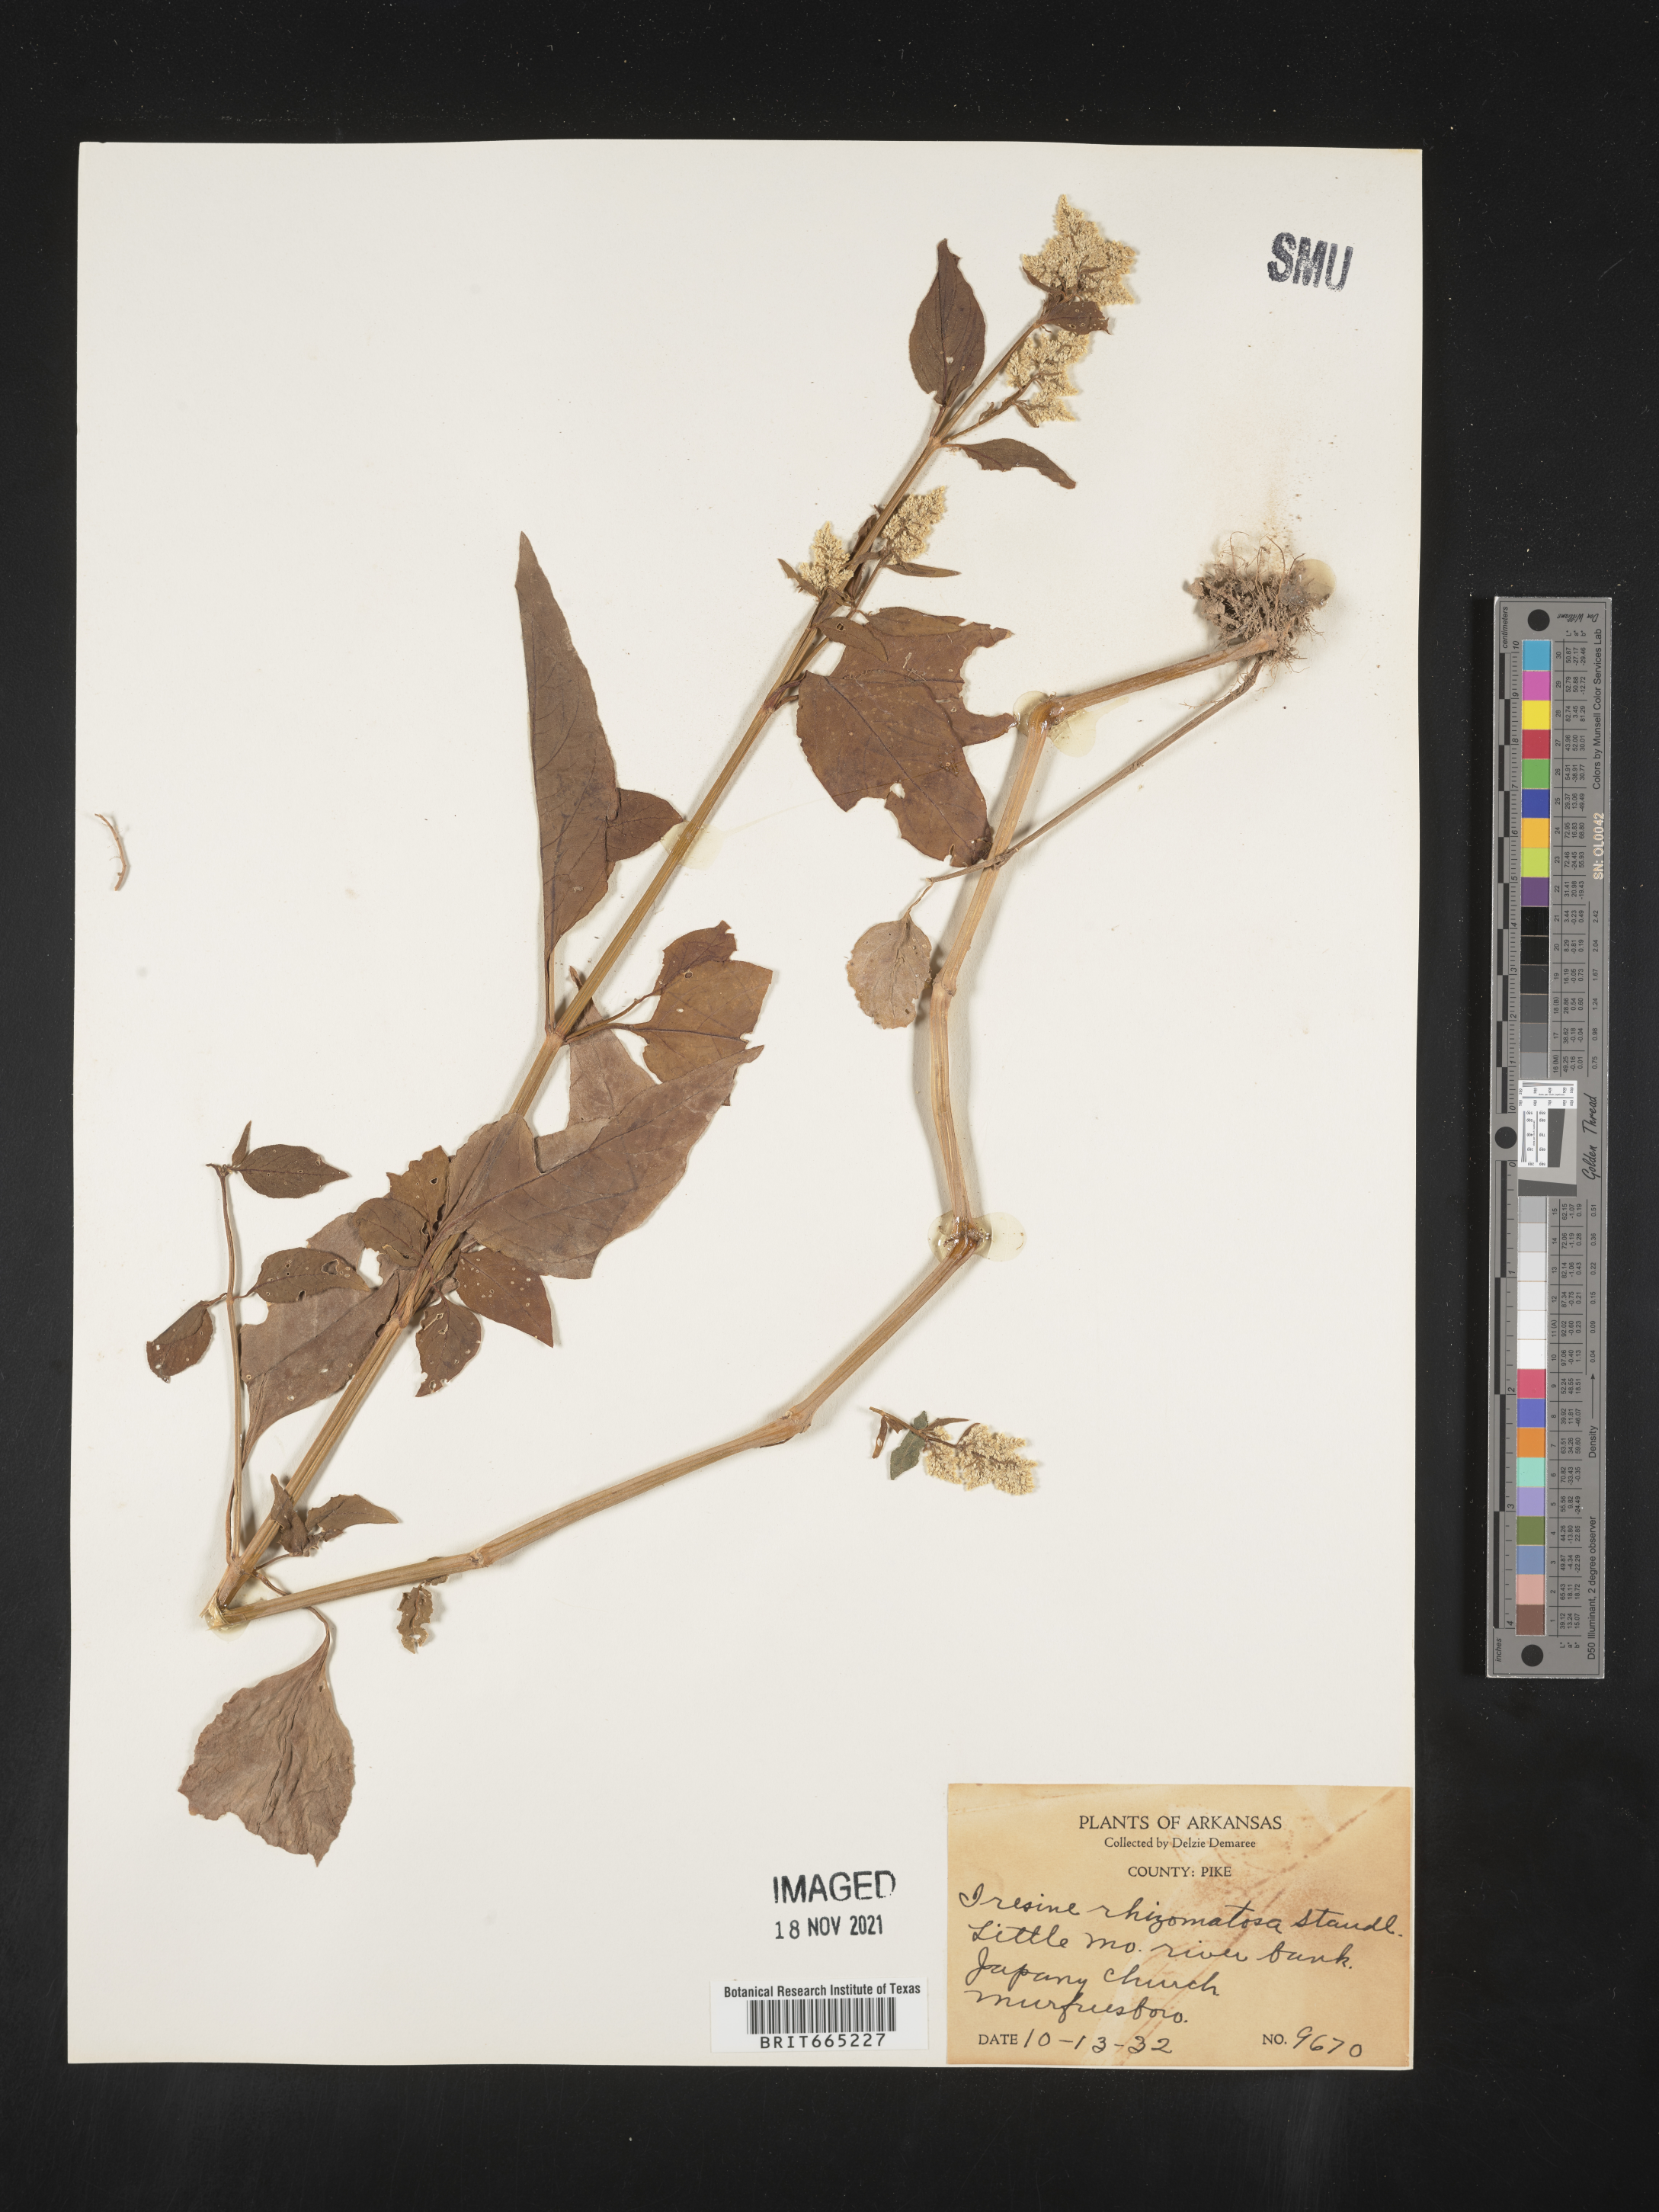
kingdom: Plantae
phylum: Tracheophyta
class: Magnoliopsida
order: Caryophyllales
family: Amaranthaceae
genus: Iresine
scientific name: Iresine rhizomatosa
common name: Juda's-bush
